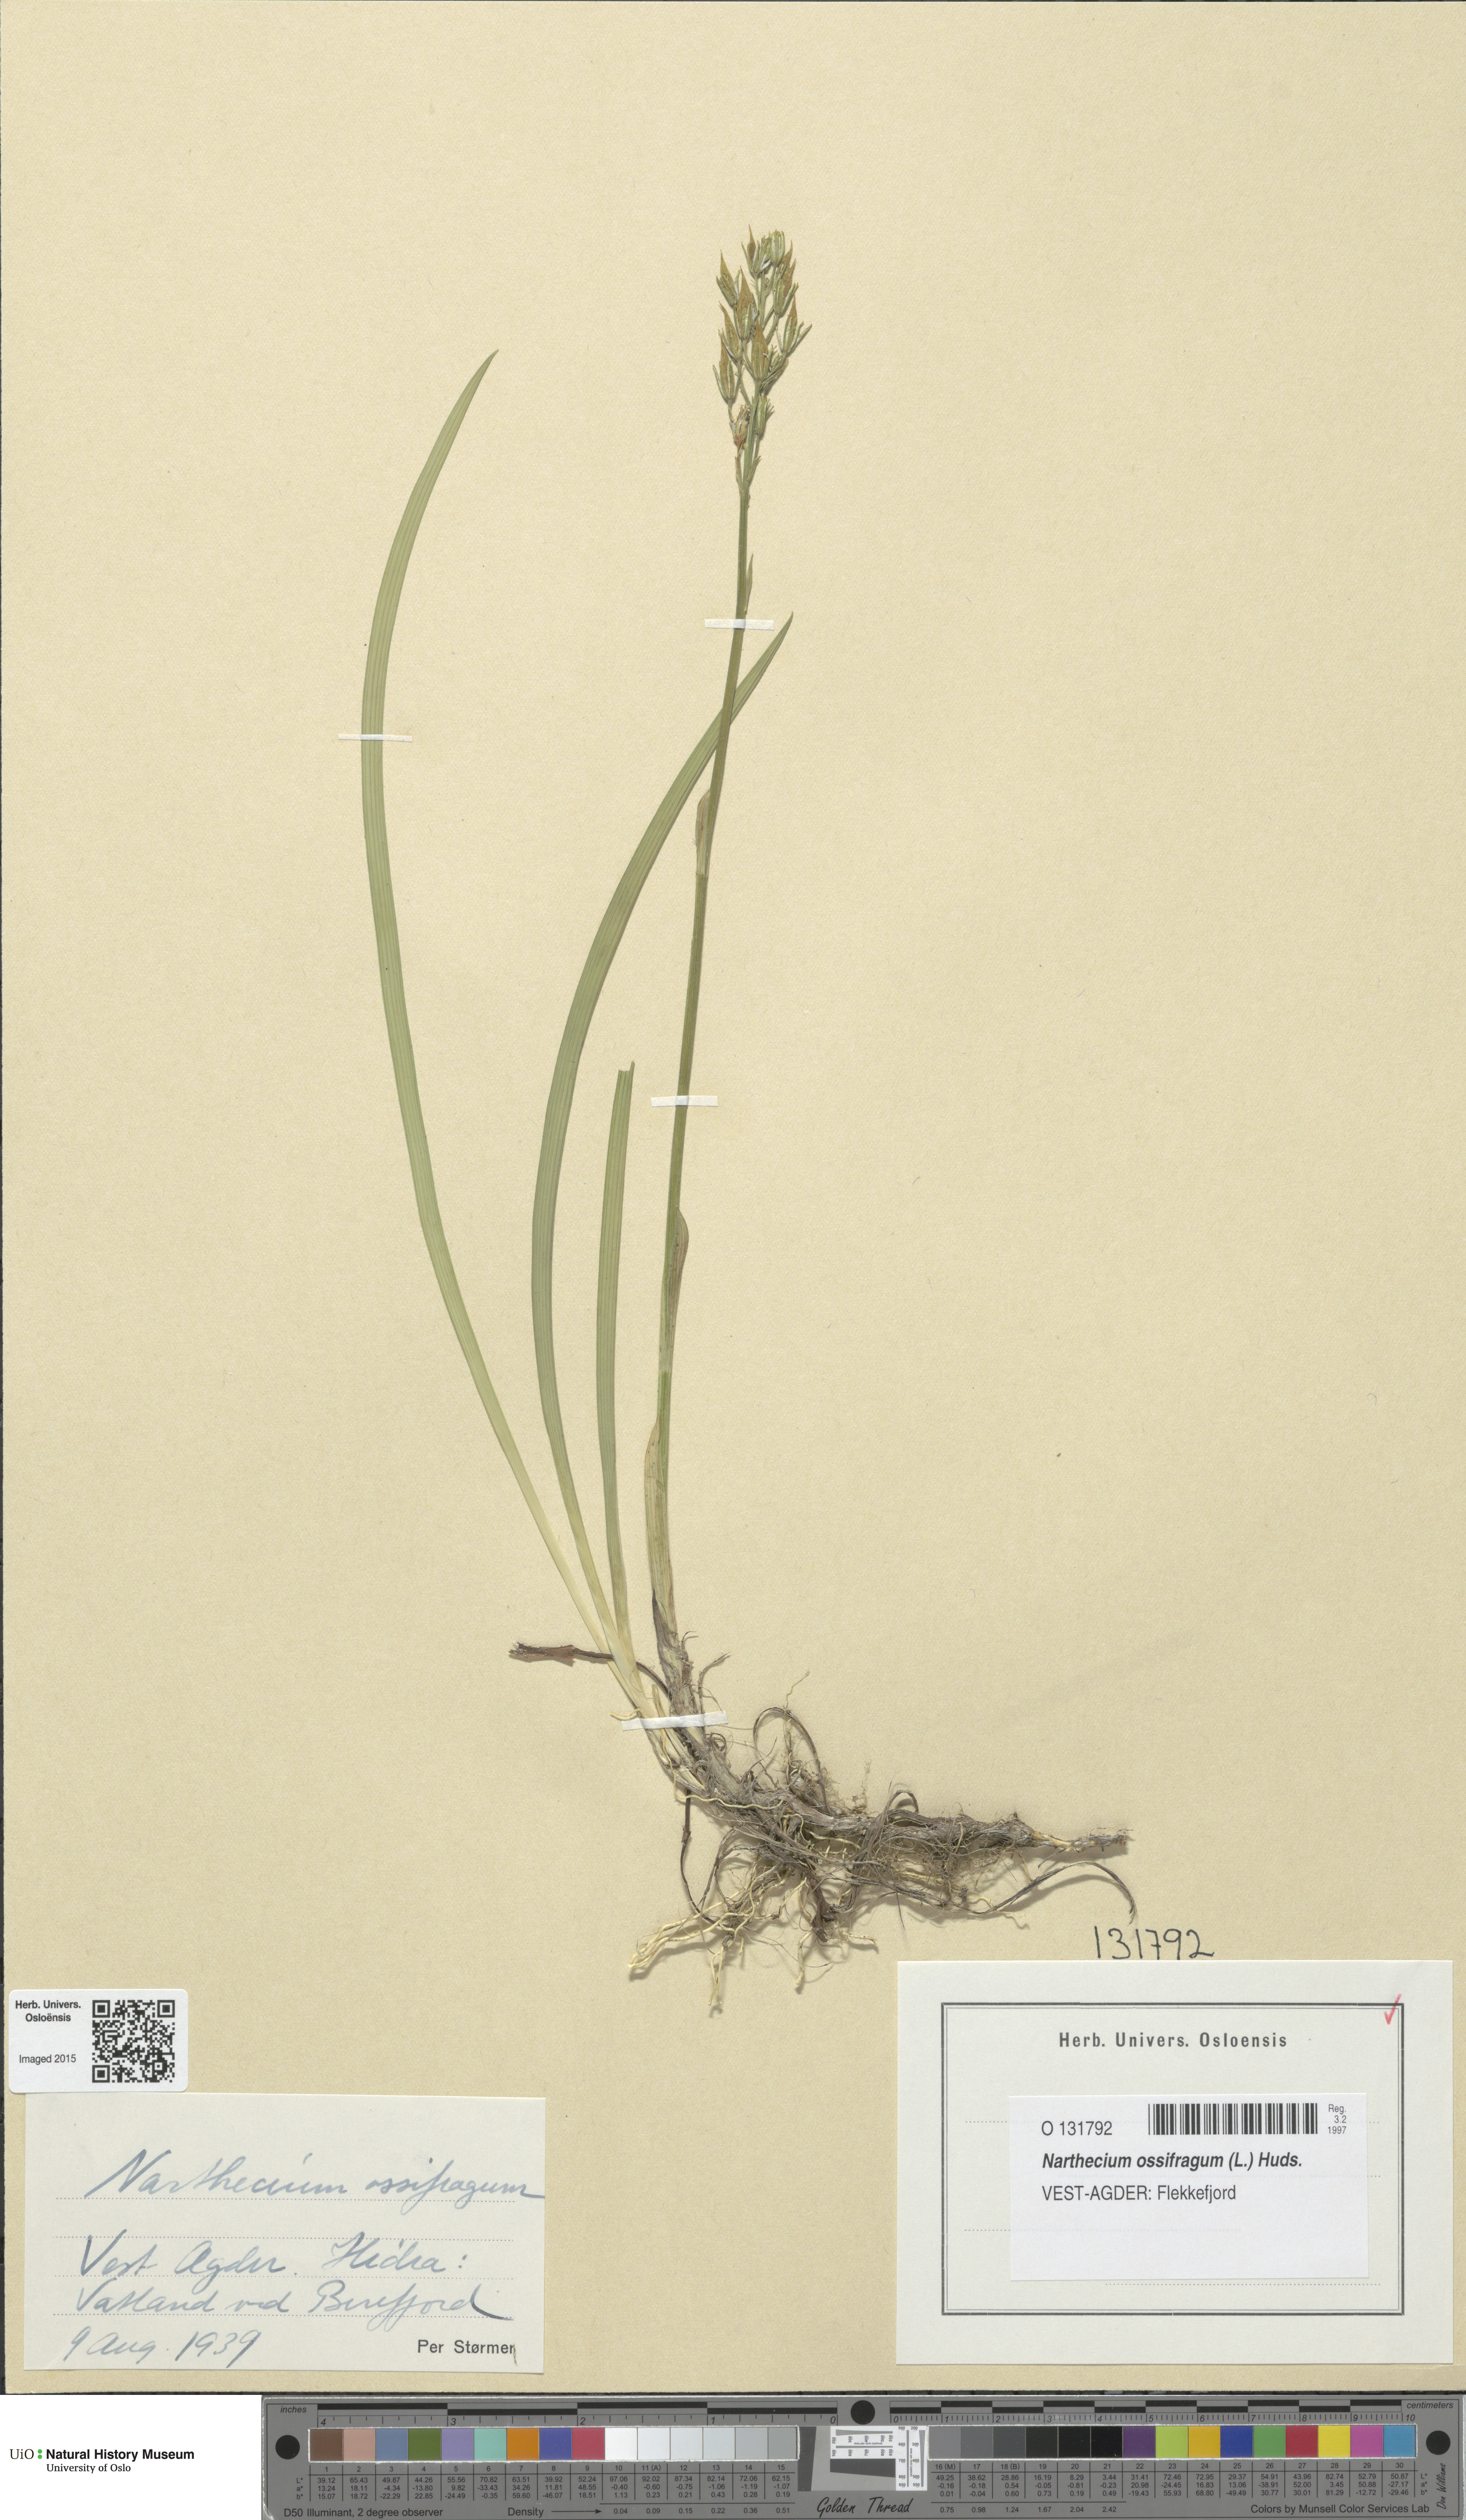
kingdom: Plantae
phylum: Tracheophyta
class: Liliopsida
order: Dioscoreales
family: Nartheciaceae
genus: Narthecium
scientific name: Narthecium ossifragum
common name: Bog asphodel
